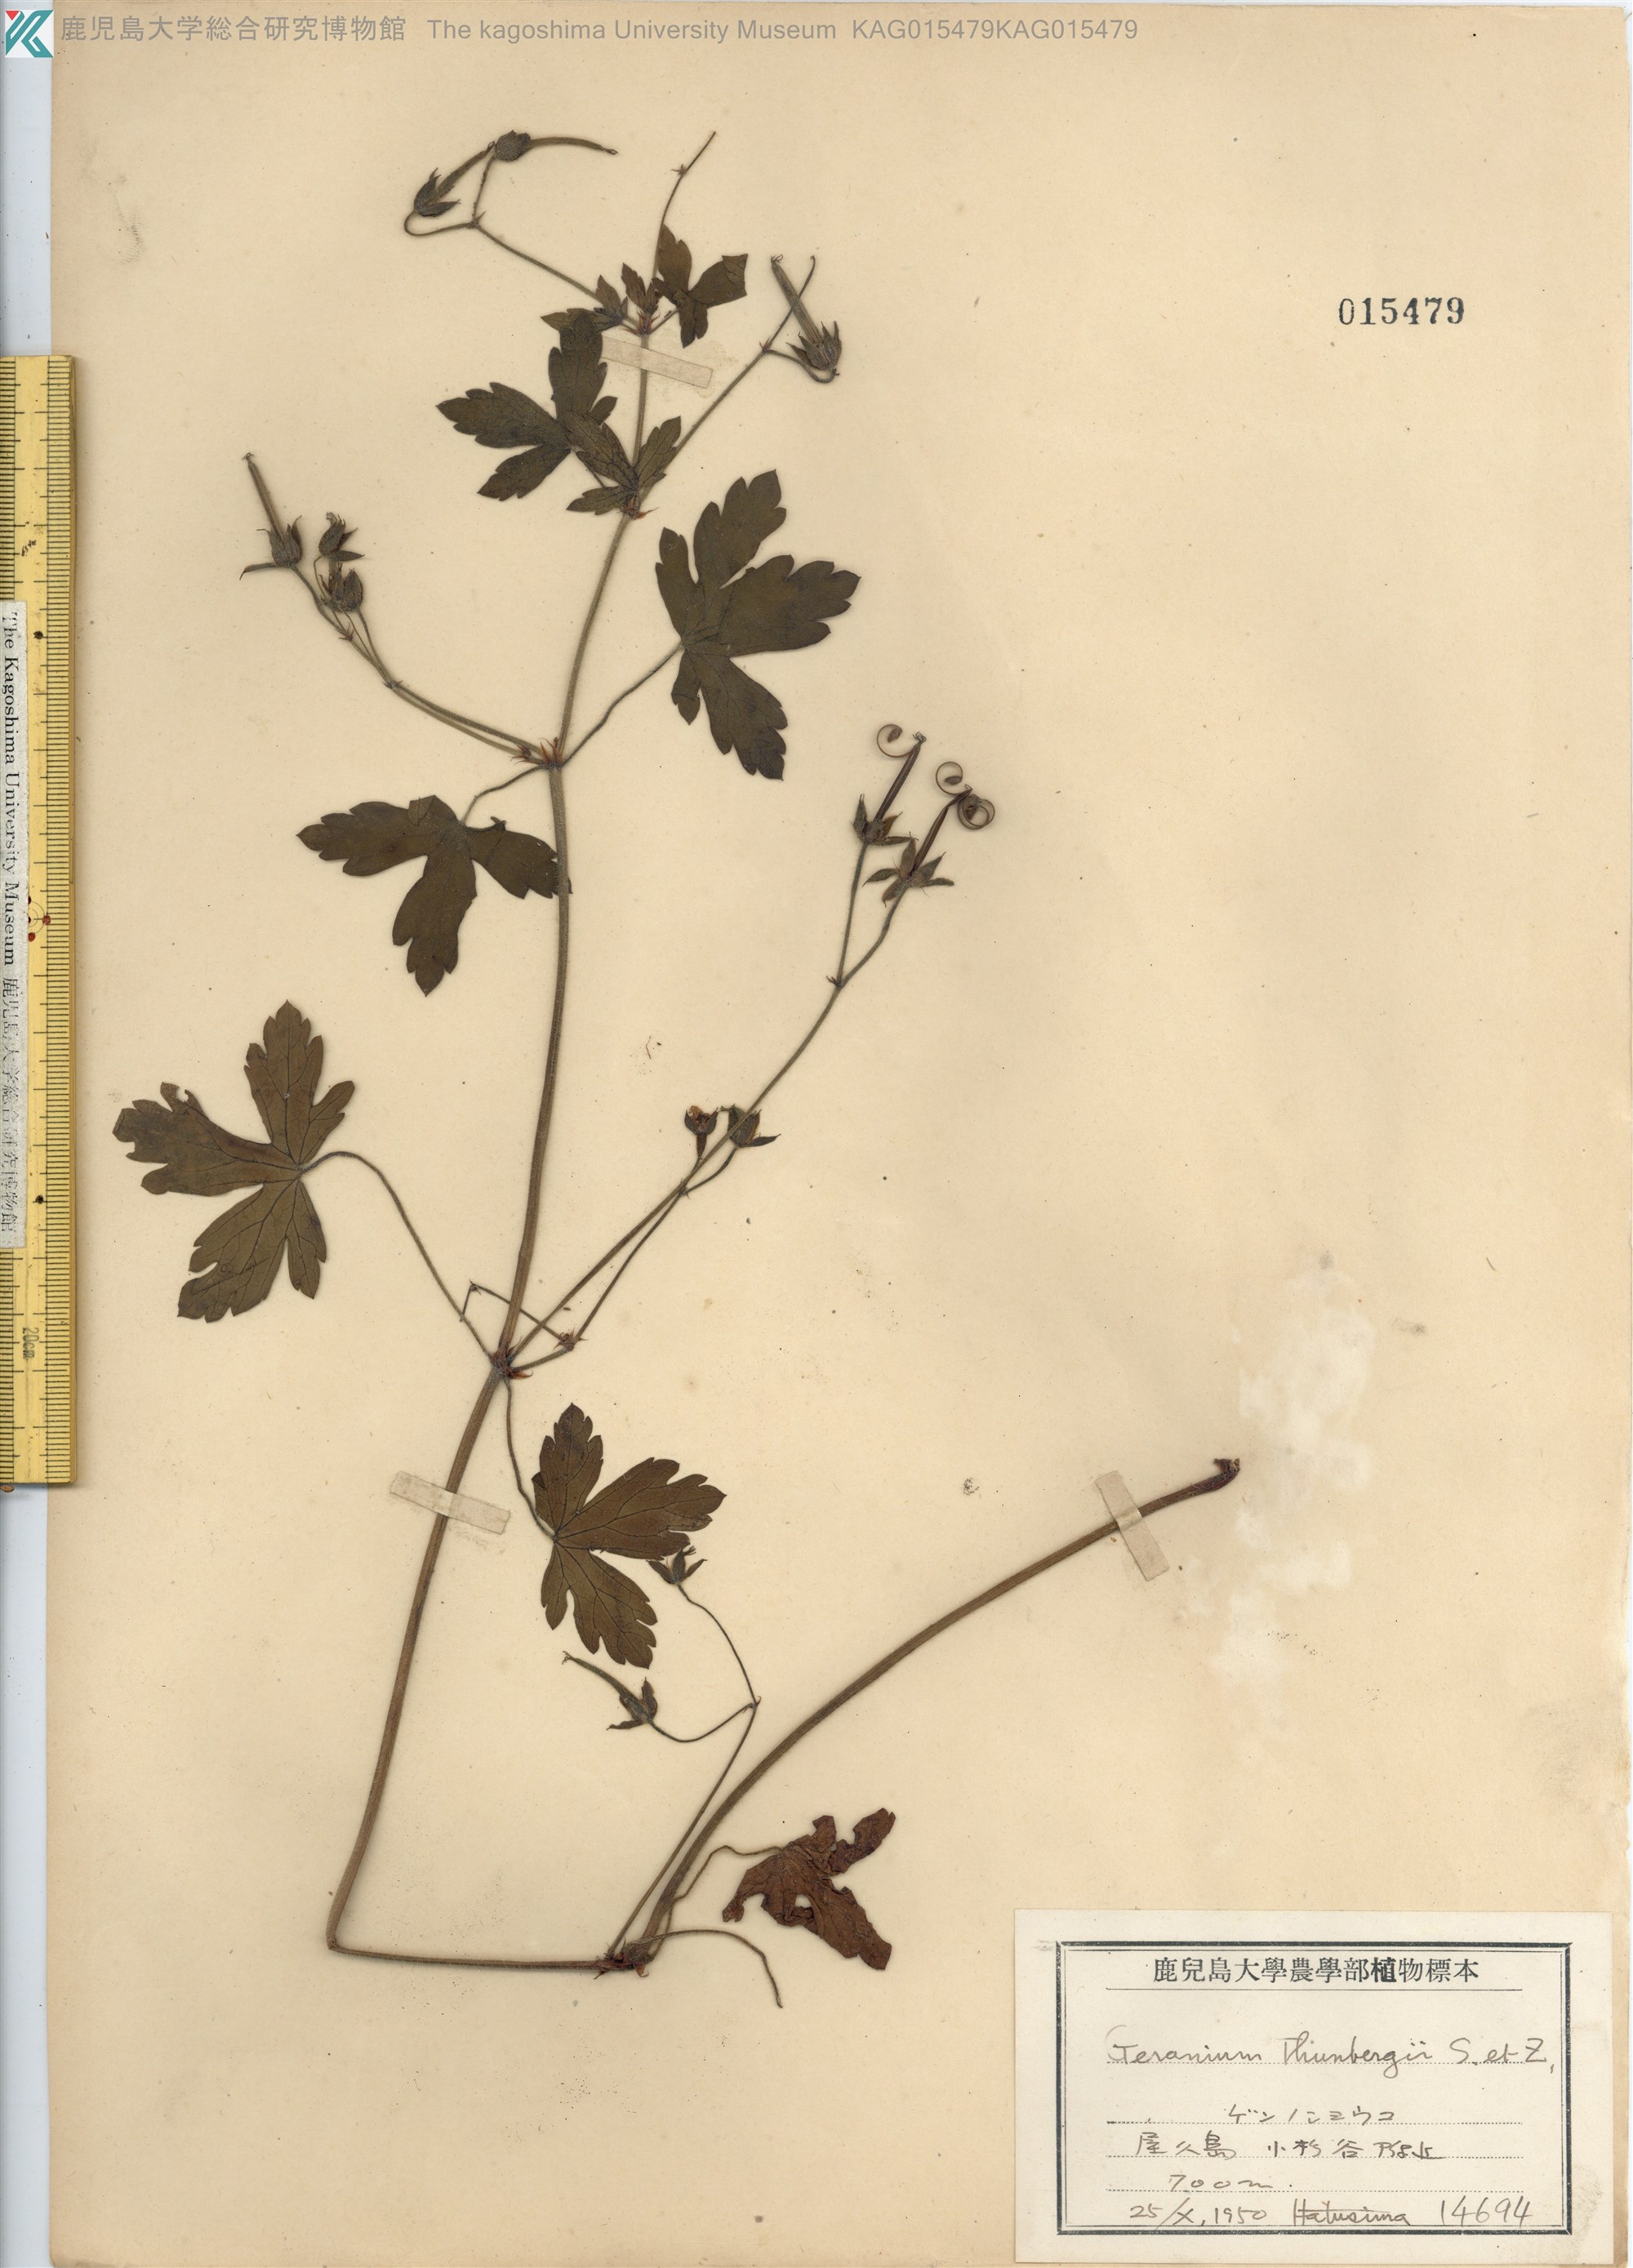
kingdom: Plantae
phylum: Tracheophyta
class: Magnoliopsida
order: Geraniales
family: Geraniaceae
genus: Geranium
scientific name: Geranium thunbergii
